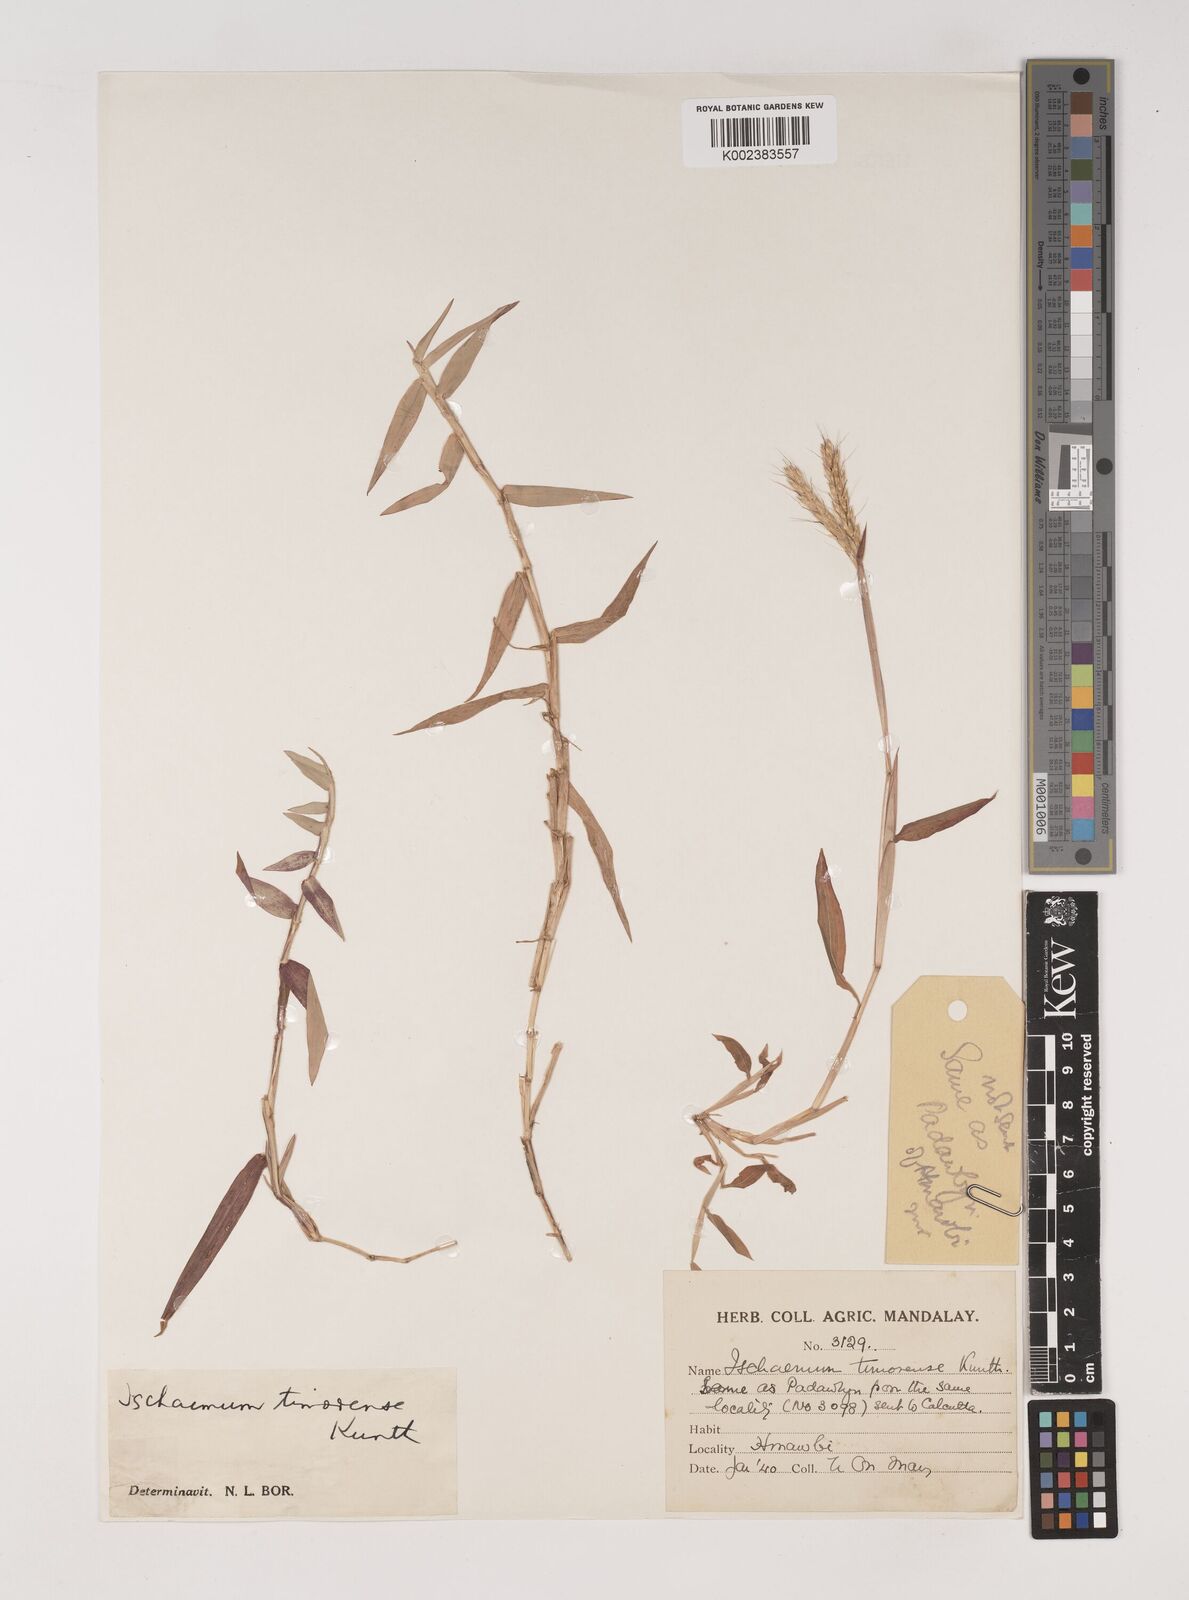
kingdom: Plantae
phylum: Tracheophyta
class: Liliopsida
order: Poales
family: Poaceae
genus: Ischaemum
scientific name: Ischaemum timorense
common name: Stalkleaf murainagrass
